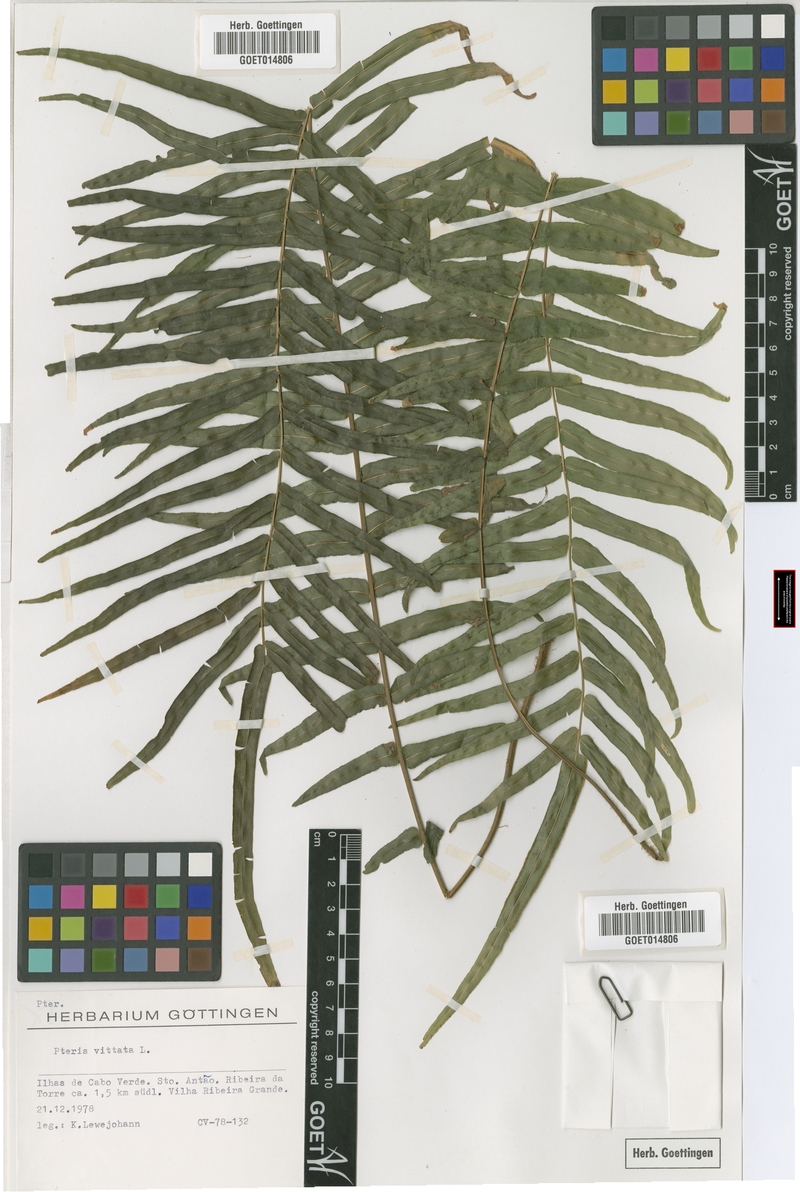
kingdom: Plantae
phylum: Tracheophyta
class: Polypodiopsida
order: Polypodiales
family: Pteridaceae
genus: Pteris
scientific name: Pteris vittata
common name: Ladder brake
